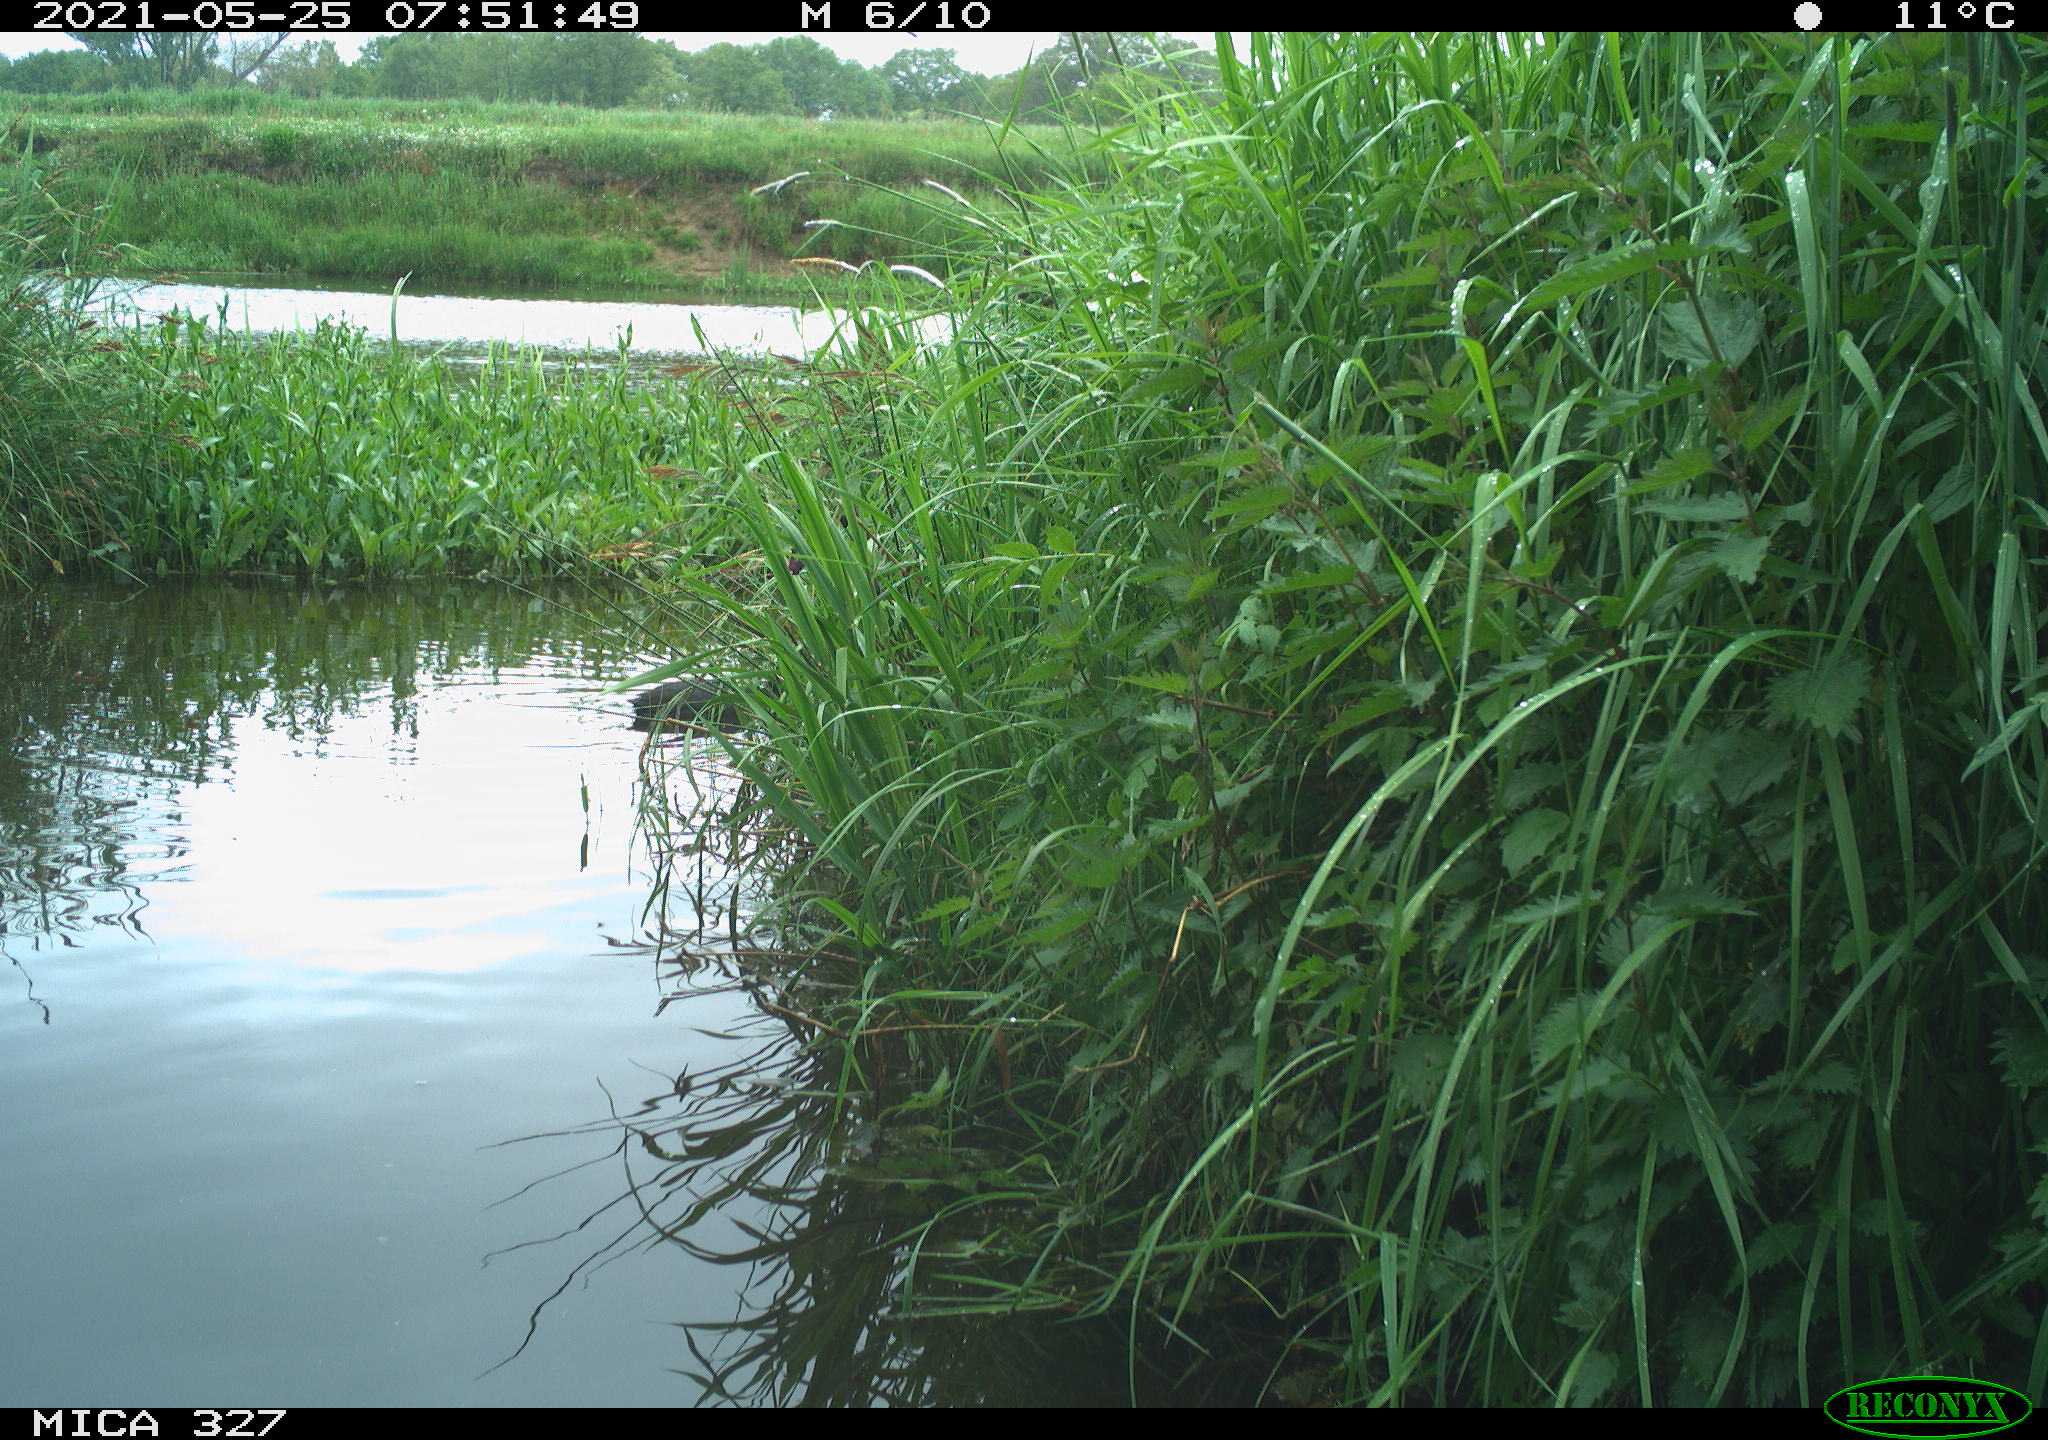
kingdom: Animalia
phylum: Chordata
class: Aves
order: Gruiformes
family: Rallidae
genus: Fulica
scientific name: Fulica atra
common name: Eurasian coot
